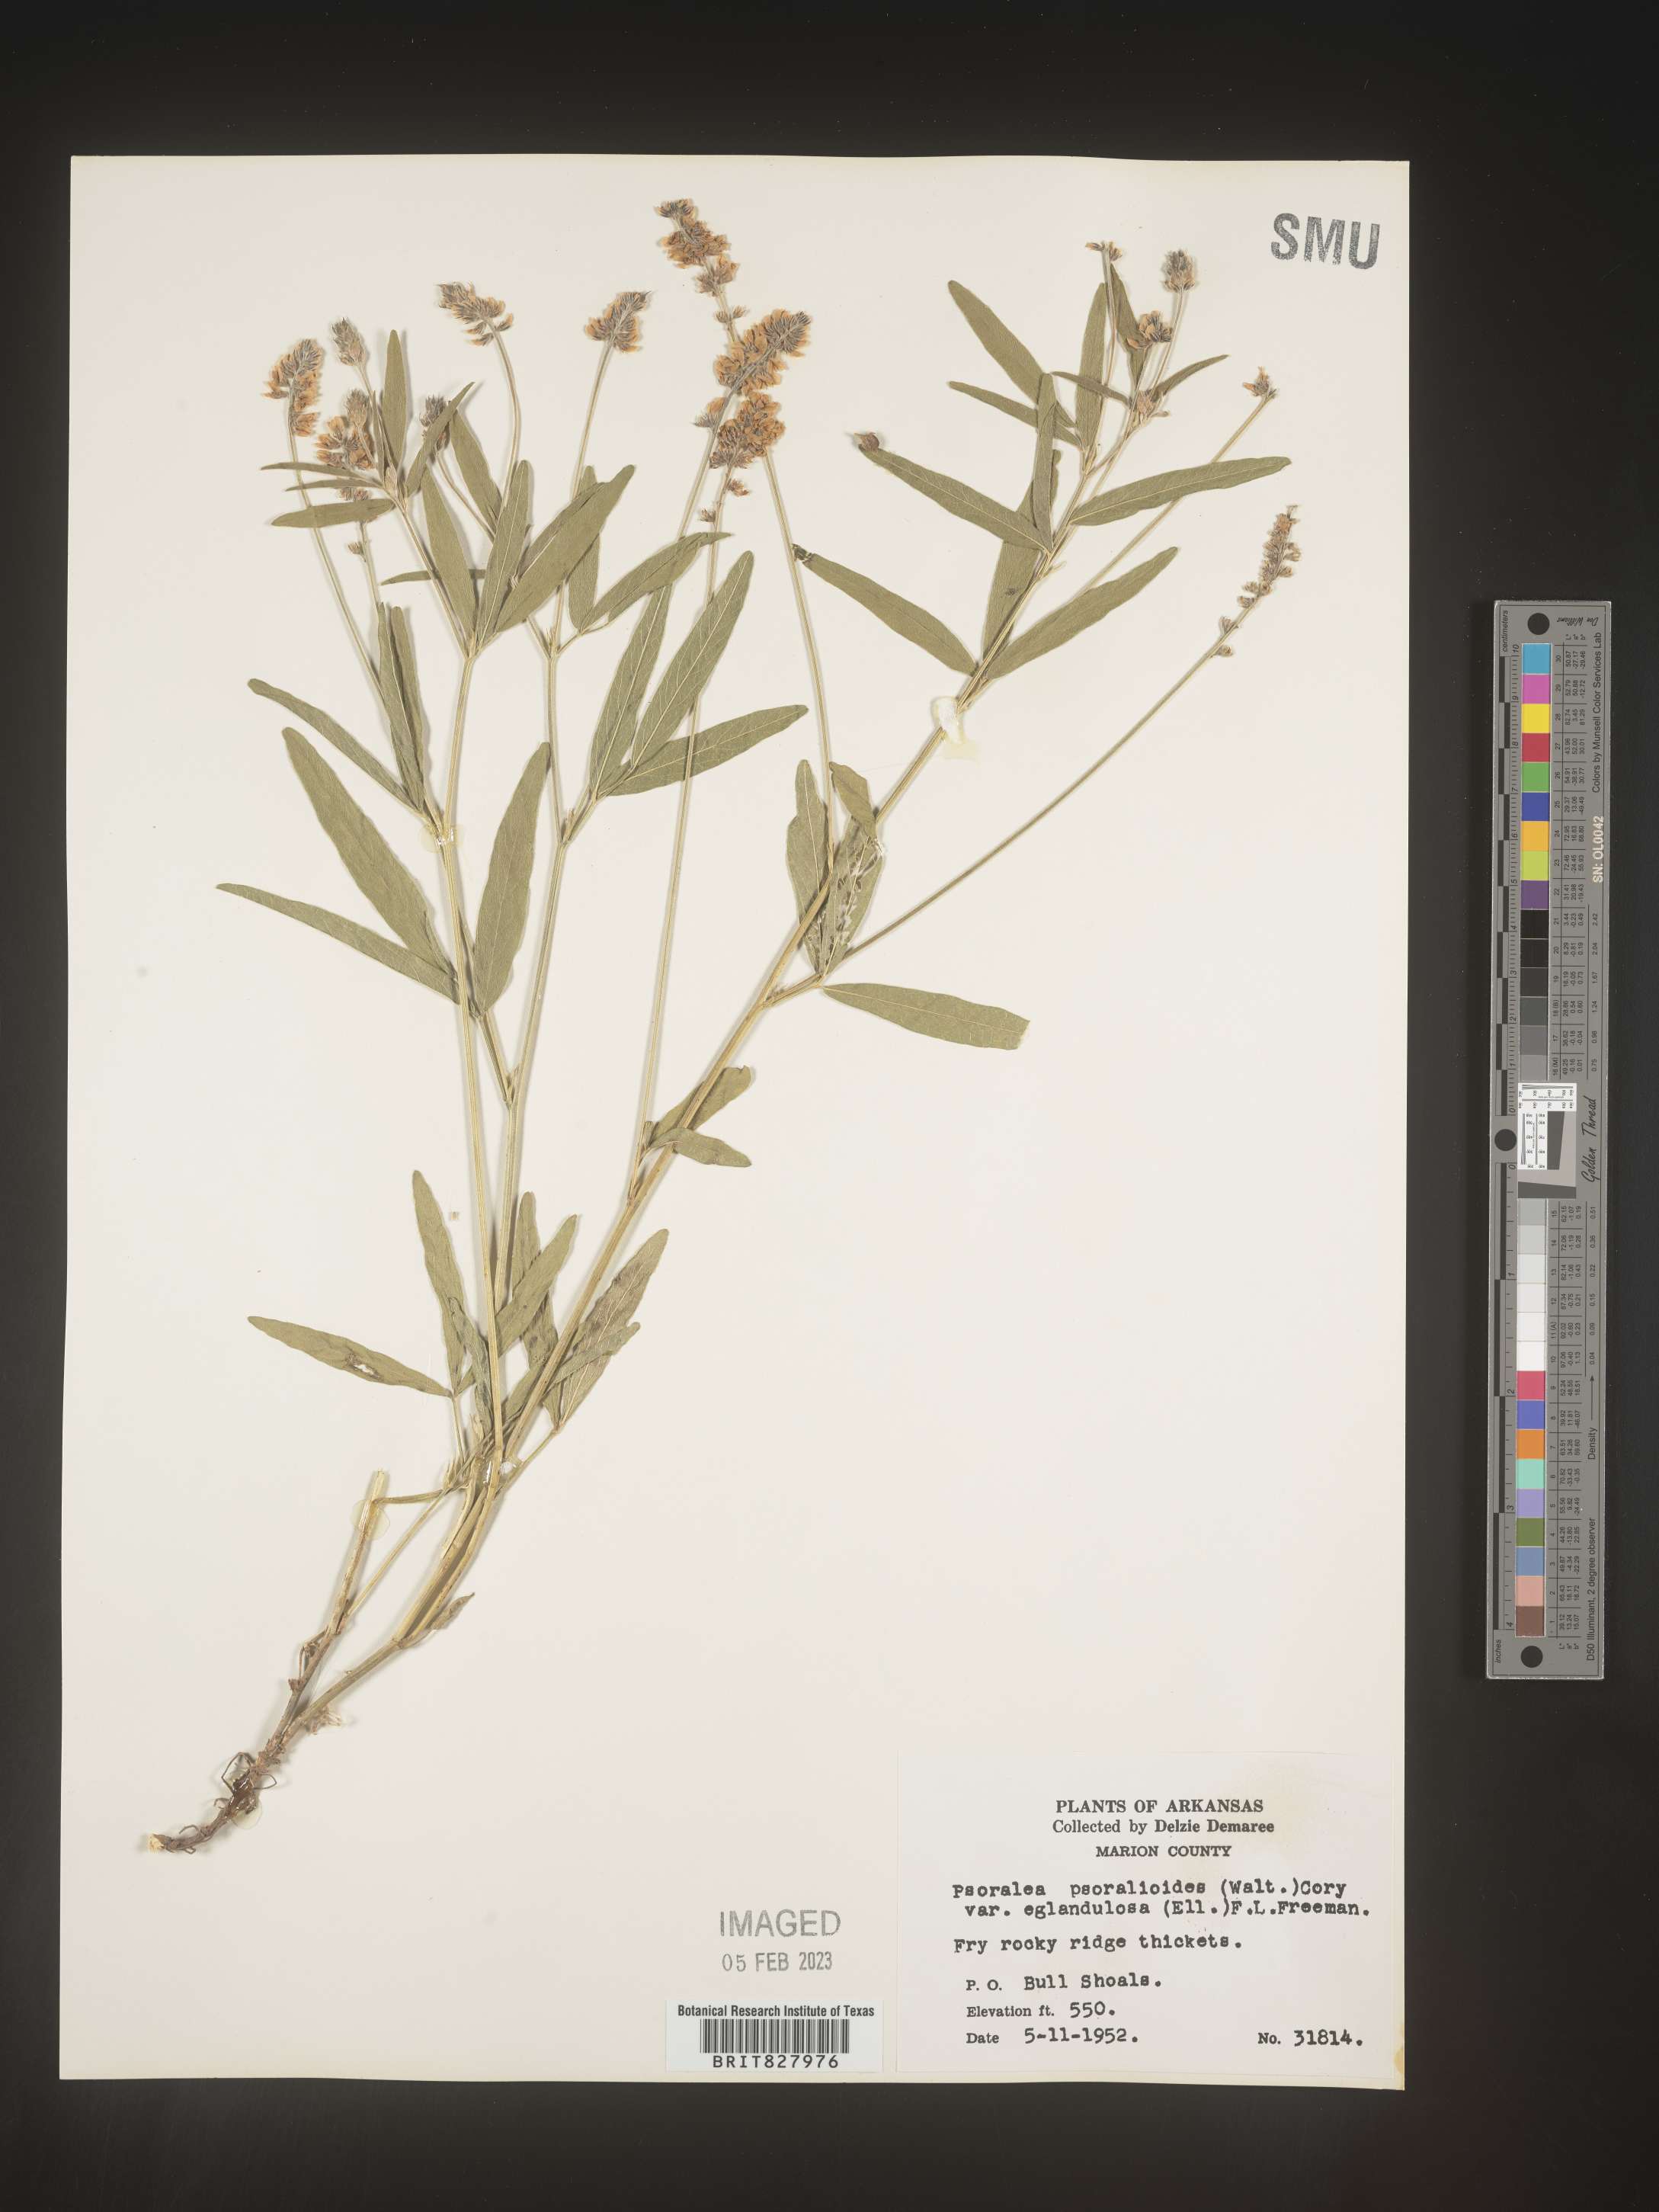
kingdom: Plantae
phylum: Tracheophyta
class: Magnoliopsida
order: Fabales
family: Fabaceae
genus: Orbexilum
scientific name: Orbexilum pedunculatum
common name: Sampson's snakeroot
